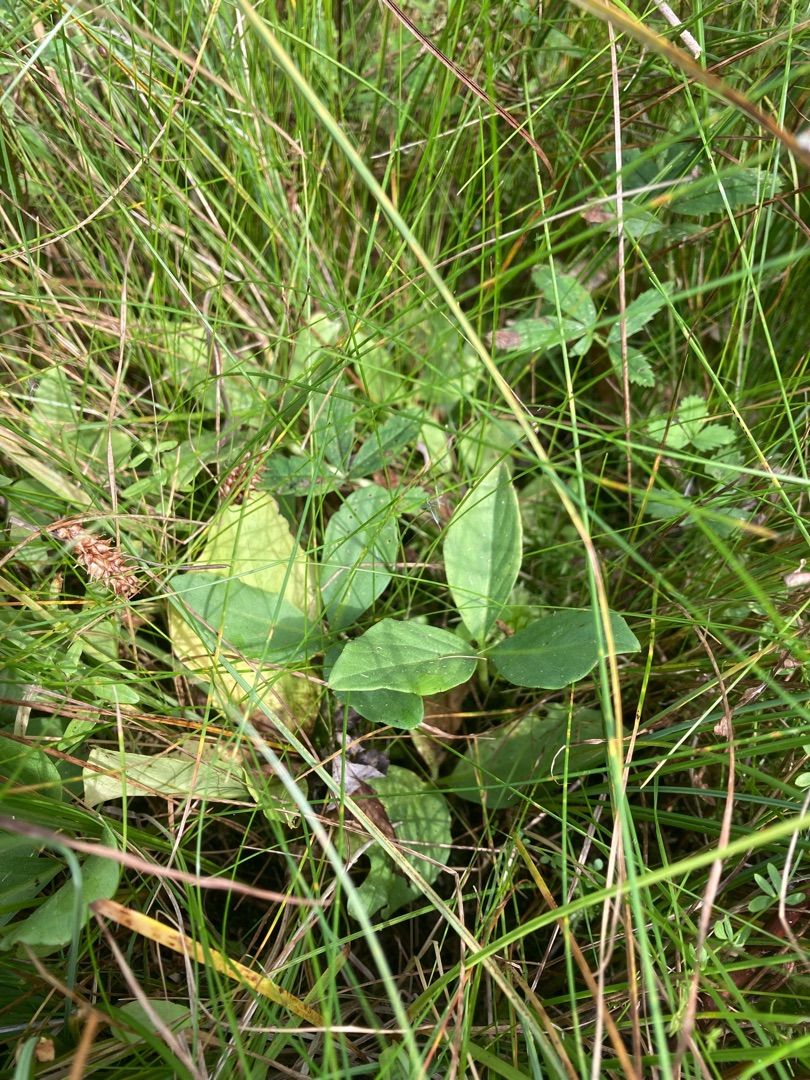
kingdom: Plantae
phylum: Tracheophyta
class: Magnoliopsida
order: Asterales
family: Menyanthaceae
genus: Menyanthes
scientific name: Menyanthes trifoliata
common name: Bukkeblad
